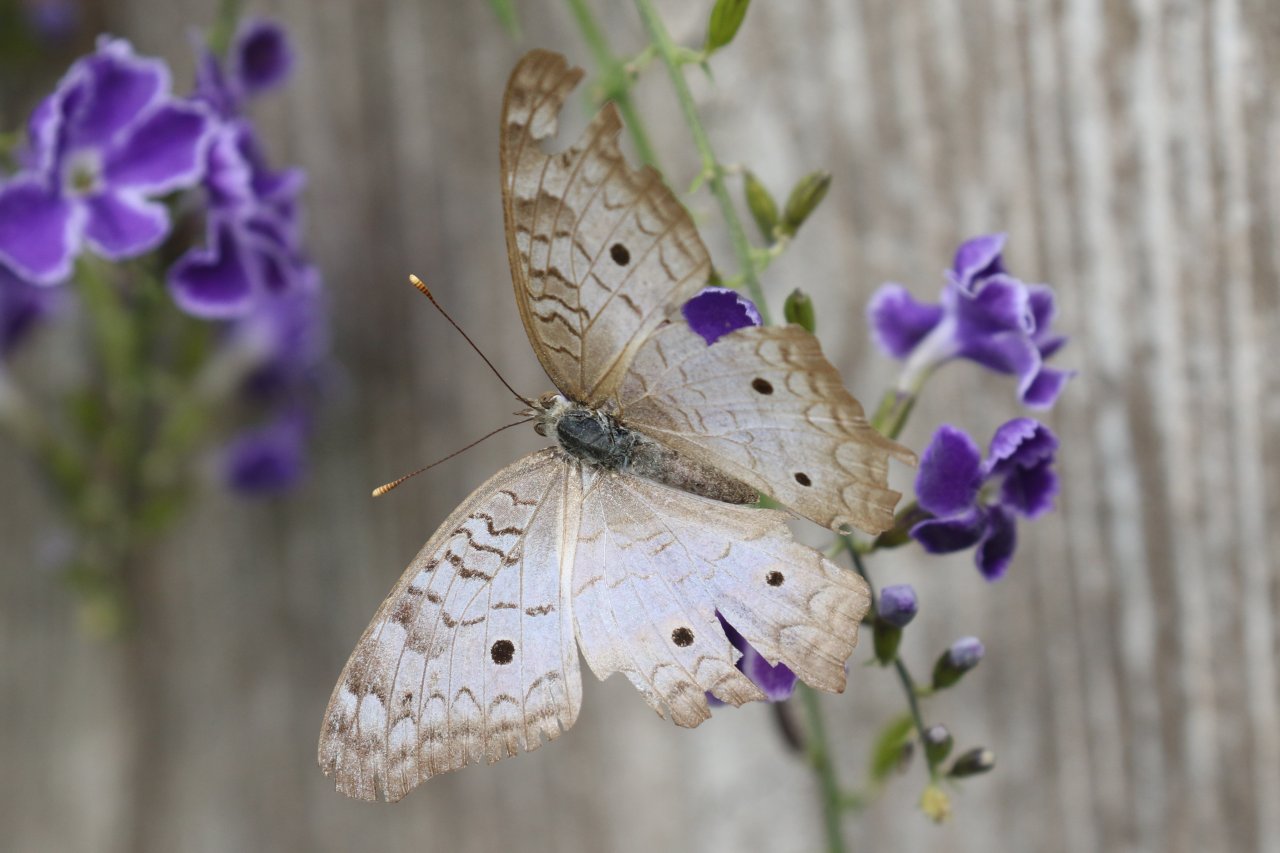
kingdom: Animalia
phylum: Arthropoda
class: Insecta
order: Lepidoptera
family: Nymphalidae
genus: Anartia
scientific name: Anartia jatrophae
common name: White Peacock
